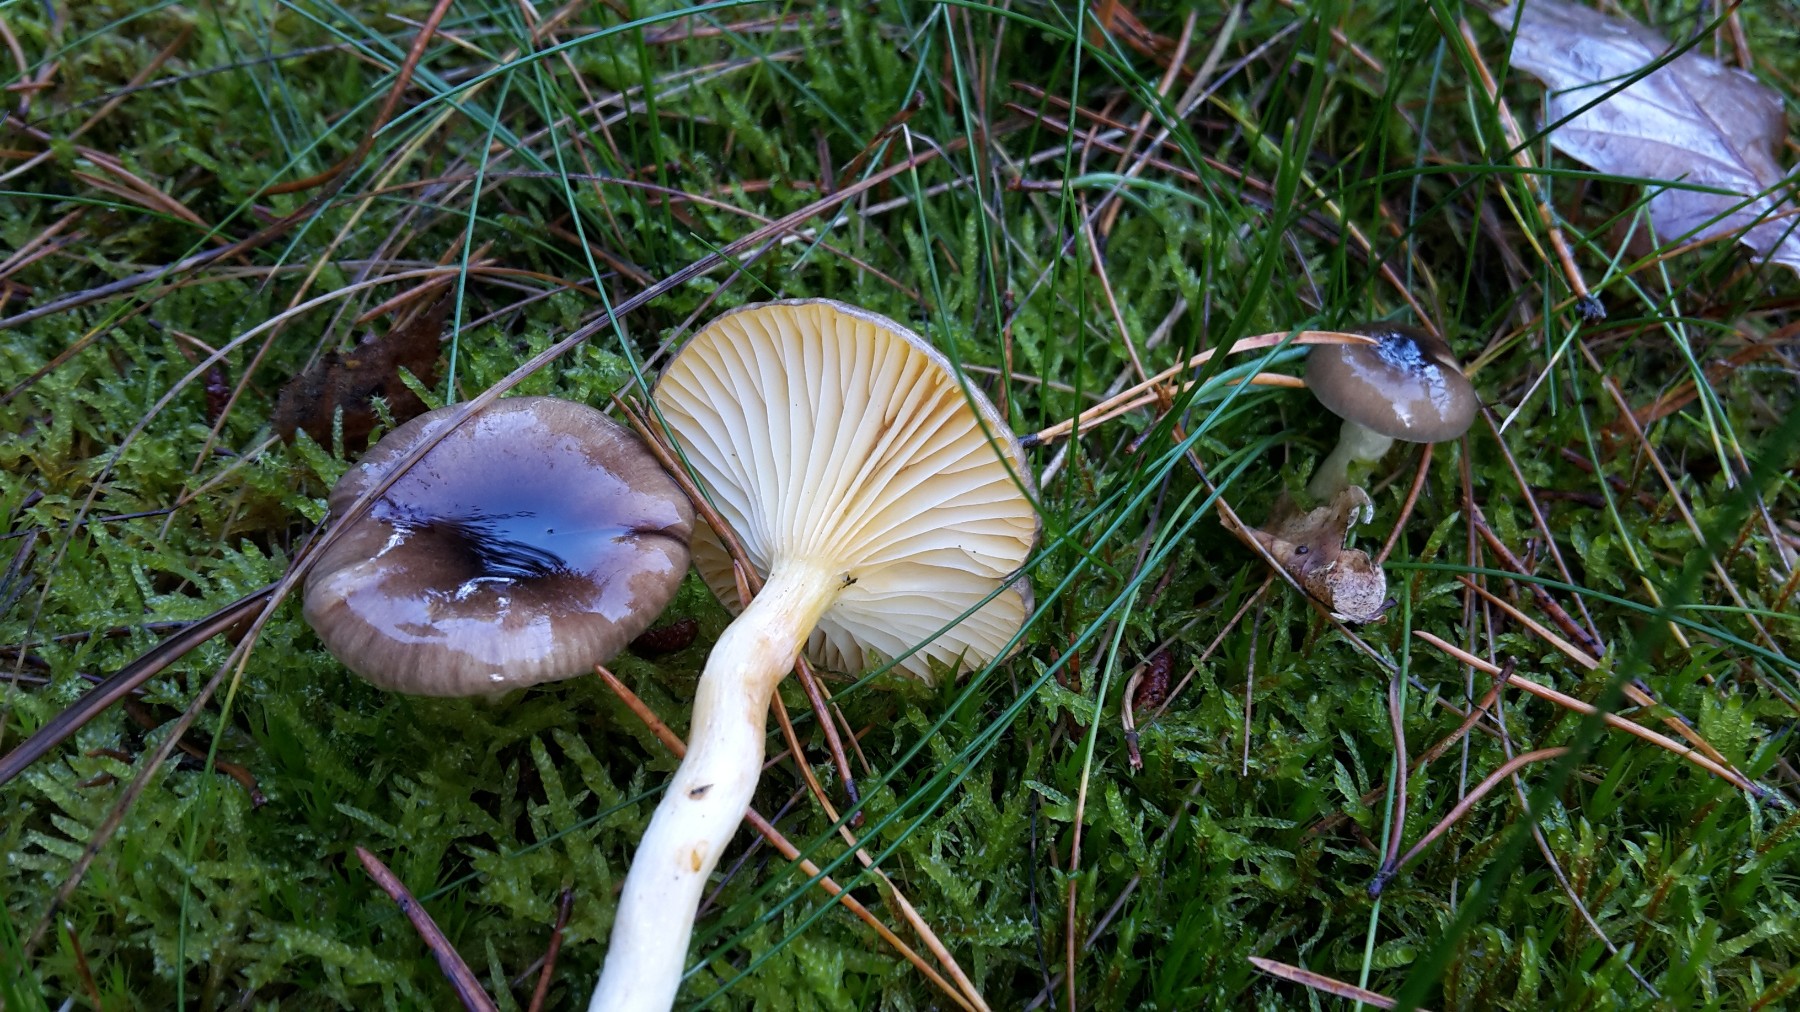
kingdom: Fungi
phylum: Basidiomycota
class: Agaricomycetes
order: Agaricales
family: Hygrophoraceae
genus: Hygrophorus
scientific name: Hygrophorus hypothejus
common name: frost-sneglehat
